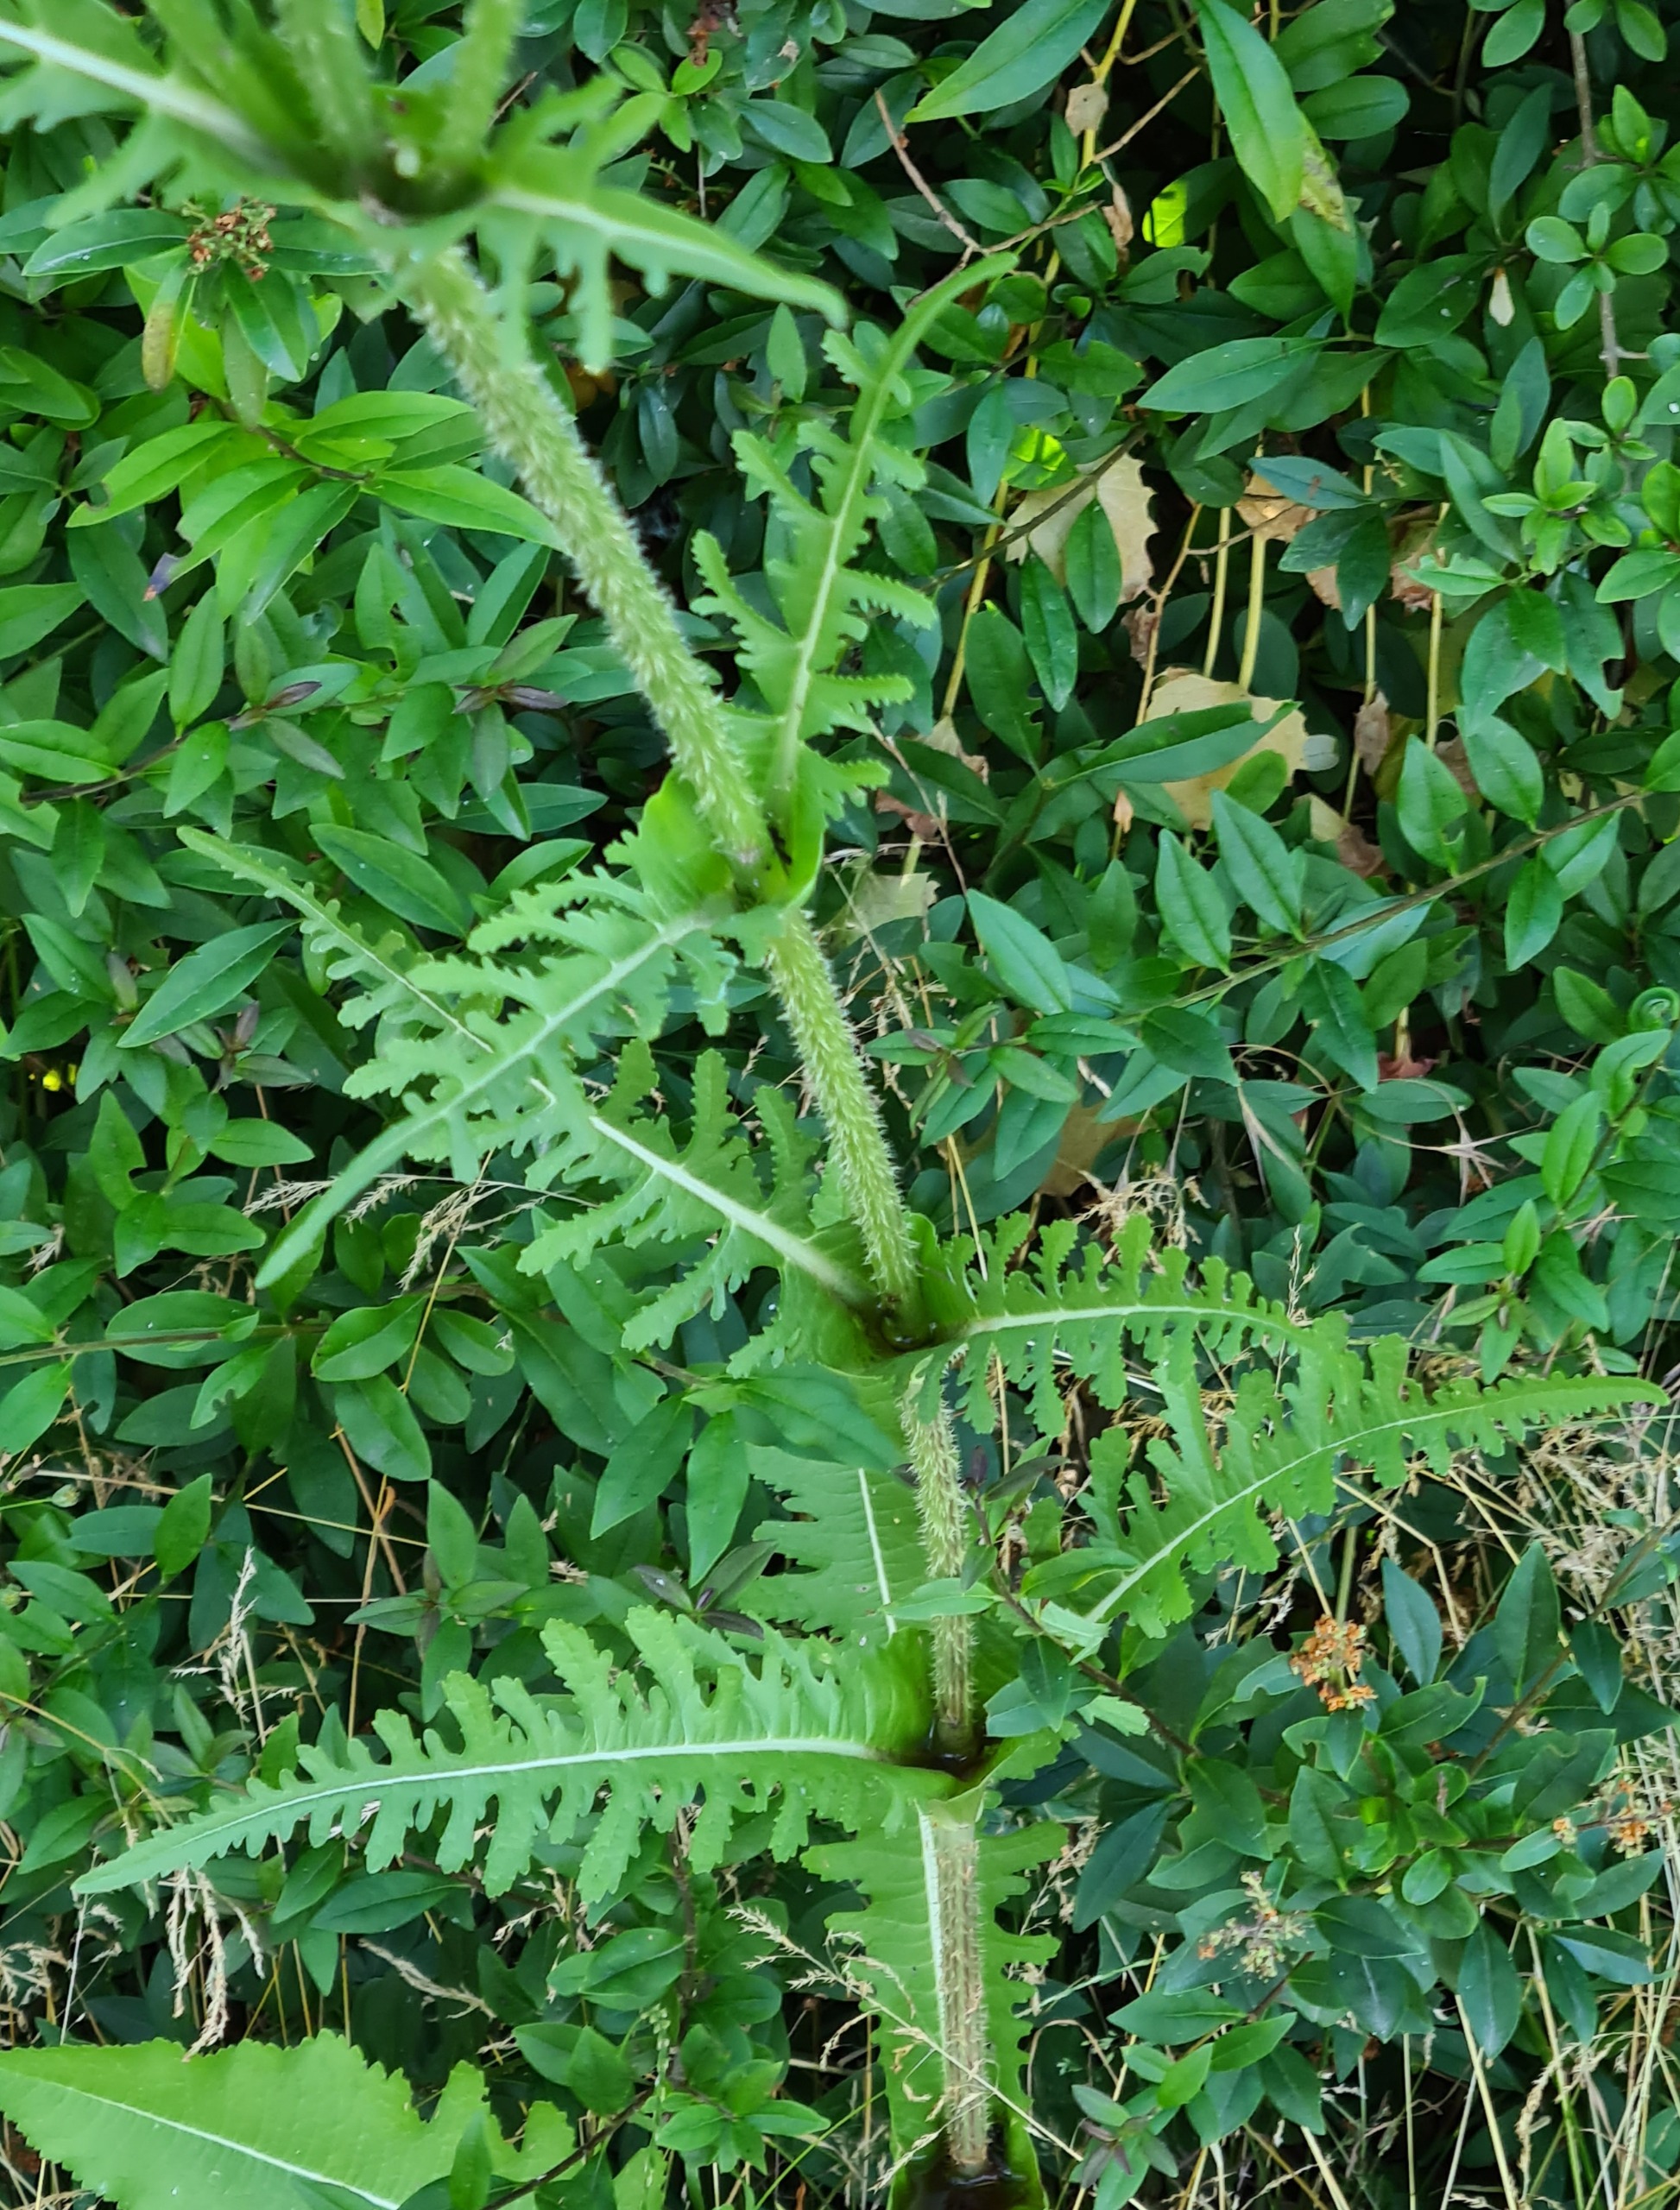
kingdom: Plantae
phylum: Tracheophyta
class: Magnoliopsida
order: Dipsacales
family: Caprifoliaceae
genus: Dipsacus
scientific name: Dipsacus laciniatus
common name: Fliget kartebolle
